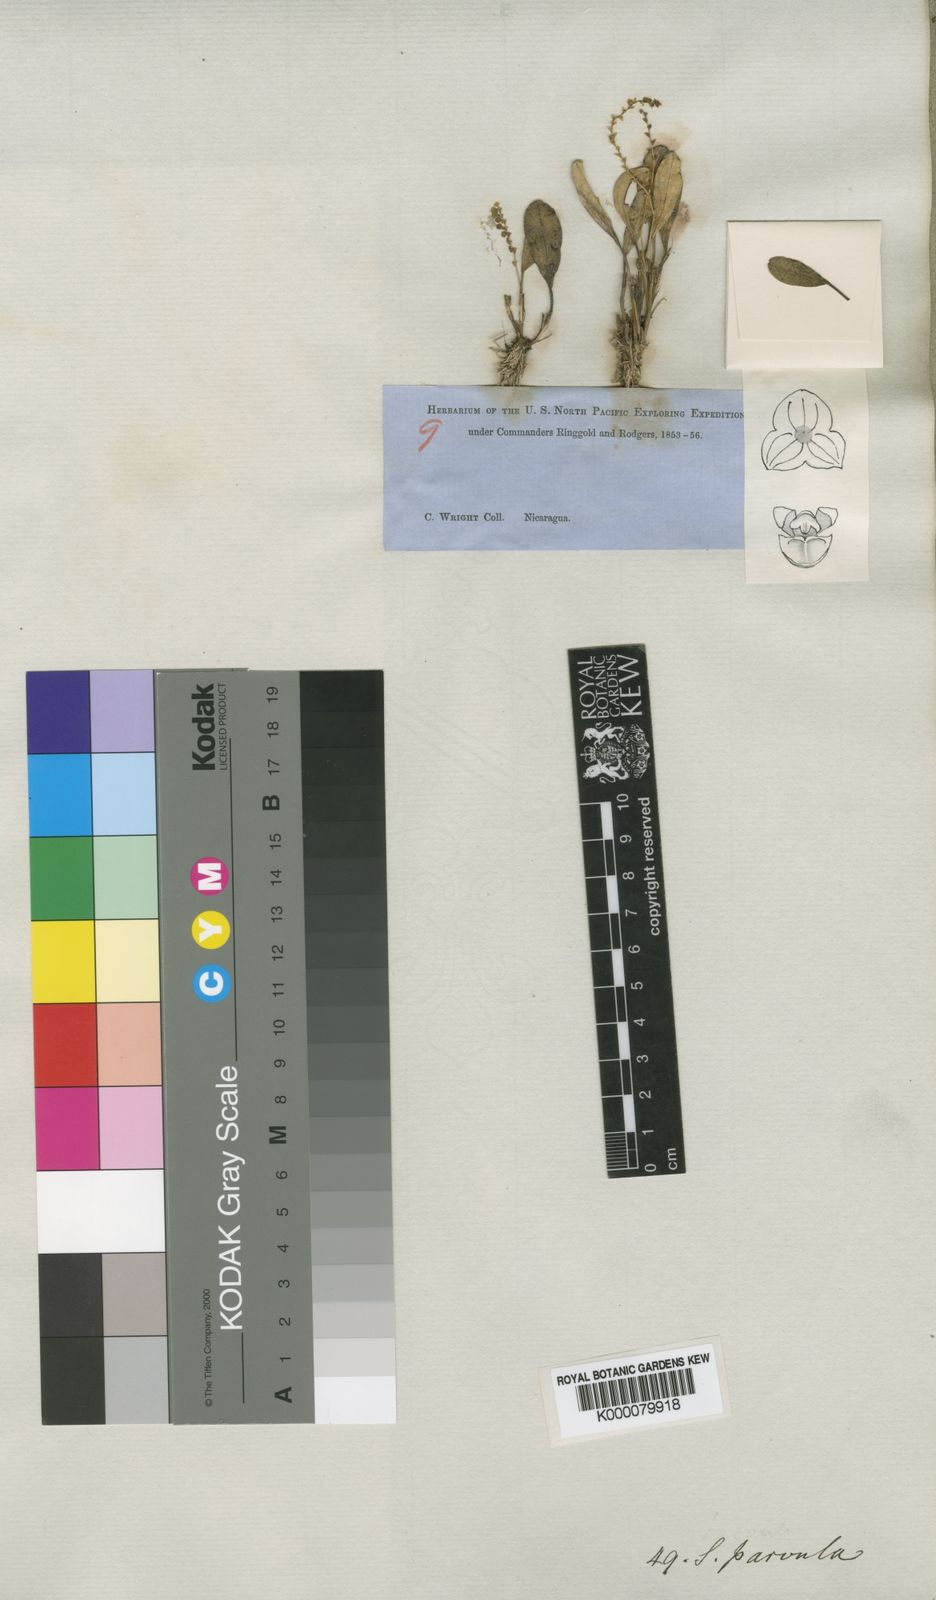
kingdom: Plantae
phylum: Tracheophyta
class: Liliopsida
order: Asparagales
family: Orchidaceae
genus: Stelis
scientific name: Stelis parvula
